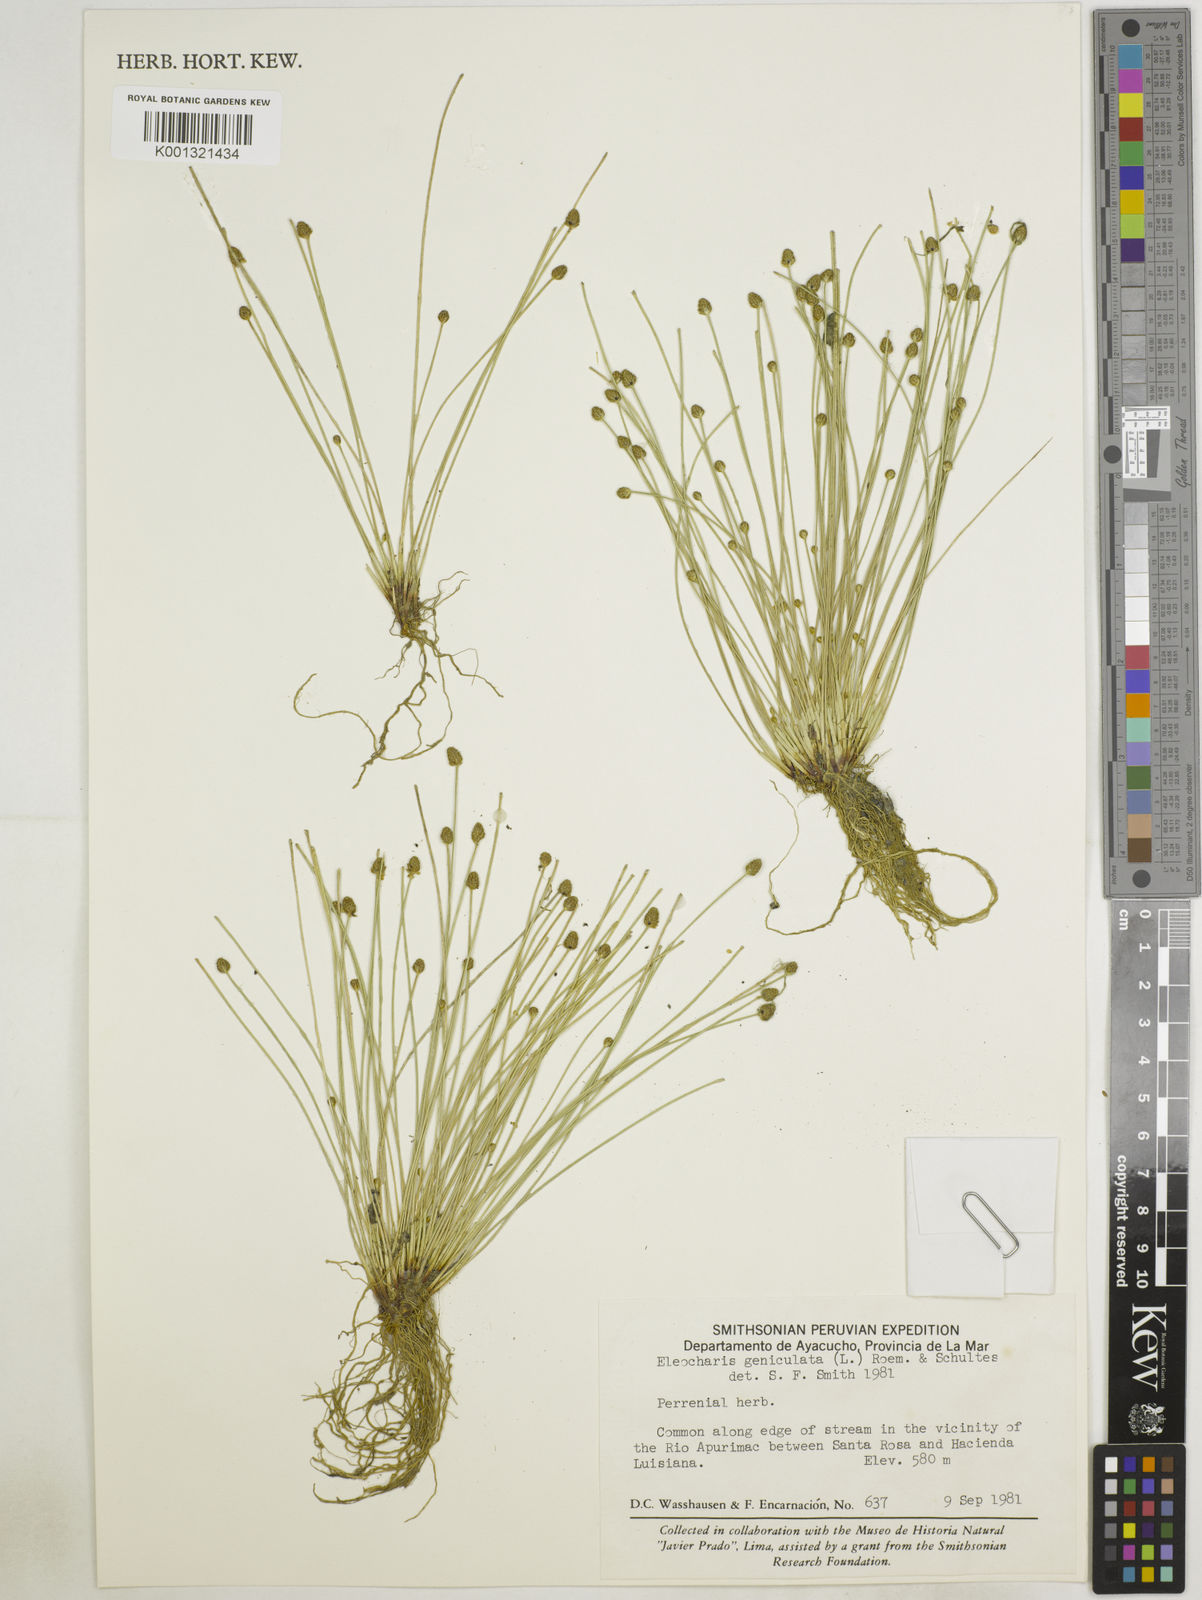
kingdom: Plantae
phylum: Tracheophyta
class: Liliopsida
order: Poales
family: Cyperaceae
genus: Eleocharis
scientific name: Eleocharis geniculata
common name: Canada spikesedge
